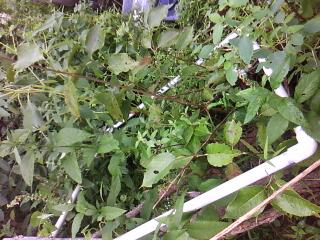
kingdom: Plantae
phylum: Tracheophyta
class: Magnoliopsida
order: Vitales
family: Vitaceae
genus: Vitis
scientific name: Vitis riparia
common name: Frost grape
